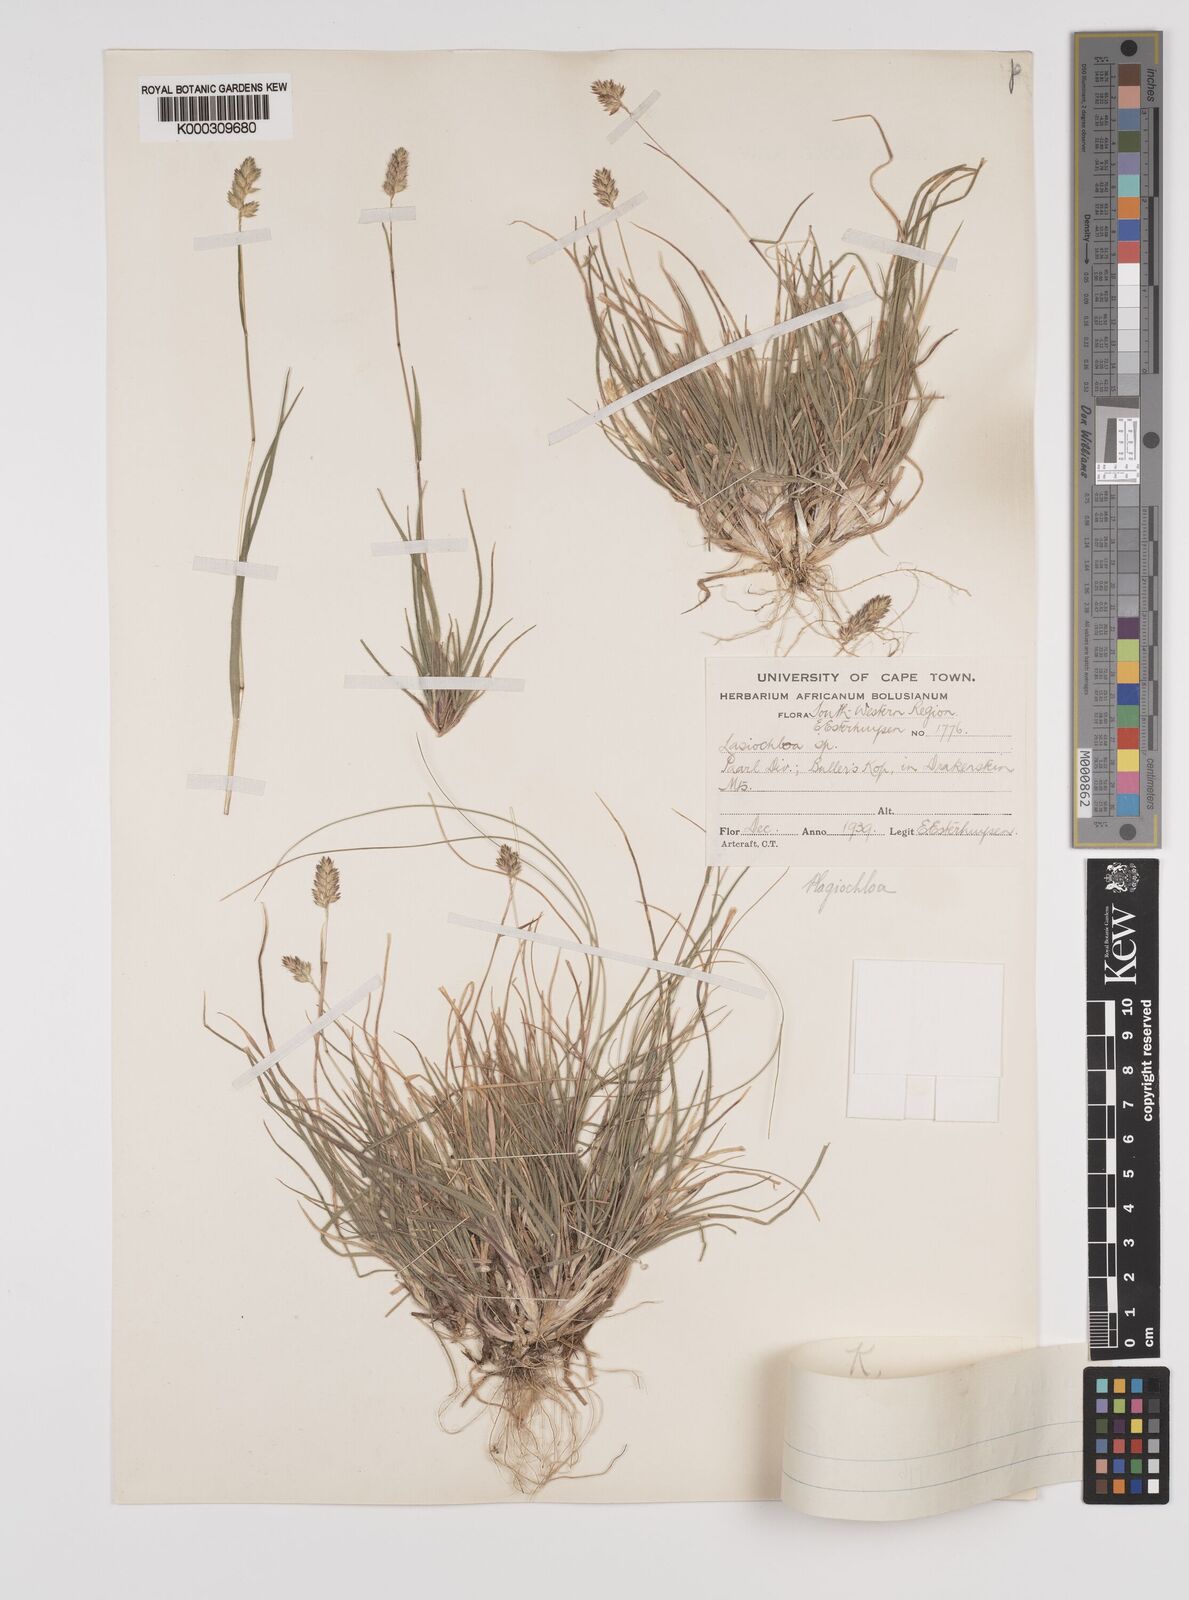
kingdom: Plantae
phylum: Tracheophyta
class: Liliopsida
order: Poales
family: Poaceae
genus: Tribolium
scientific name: Tribolium brachystachyum
